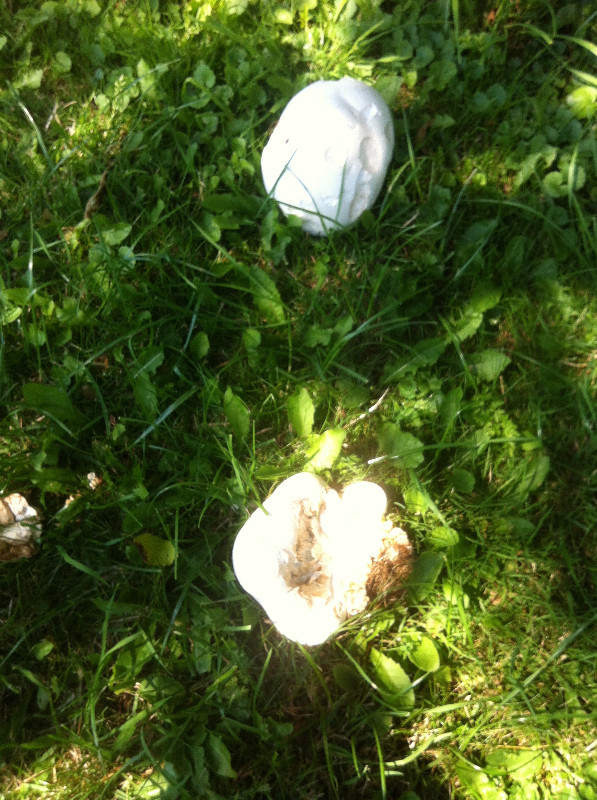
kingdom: Fungi
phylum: Basidiomycota
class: Agaricomycetes
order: Agaricales
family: Lycoperdaceae
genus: Calvatia
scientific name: Calvatia gigantea
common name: kæmpestøvbold
